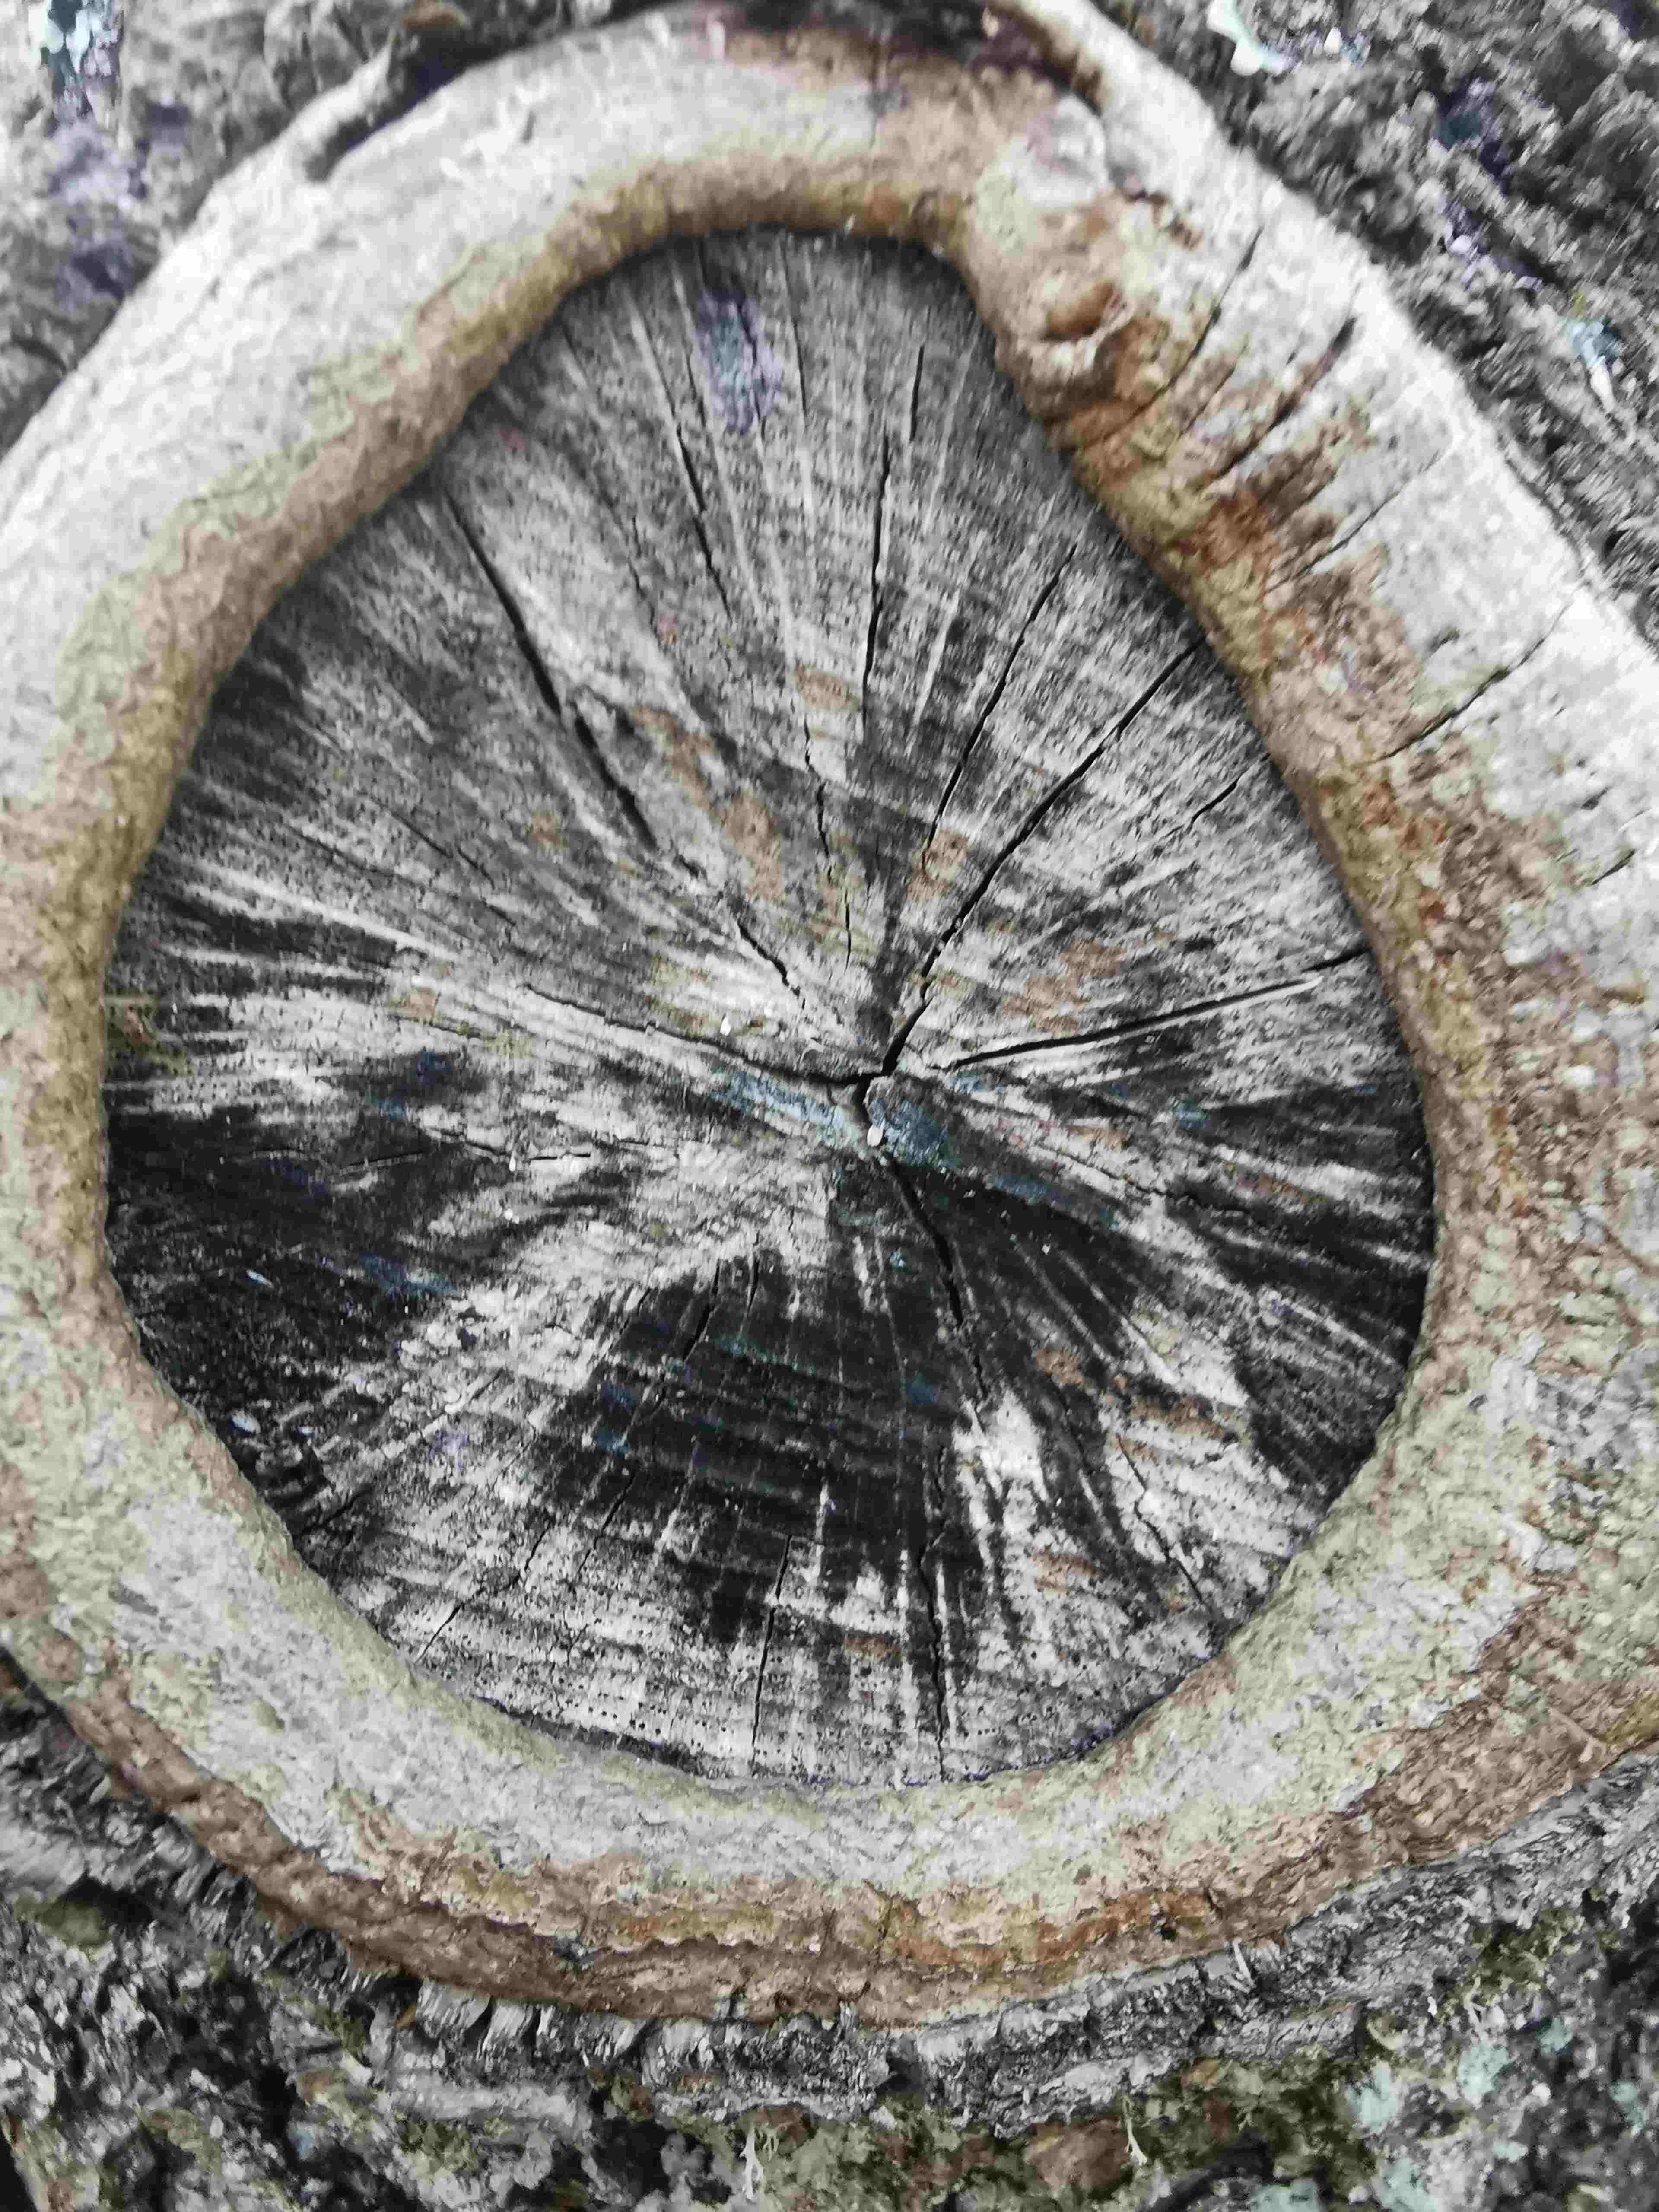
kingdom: Fungi
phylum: Ascomycota
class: Leotiomycetes
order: Helotiales
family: Helotiaceae
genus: Bispora
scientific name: Bispora pallescens
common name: måtte-snitskive
